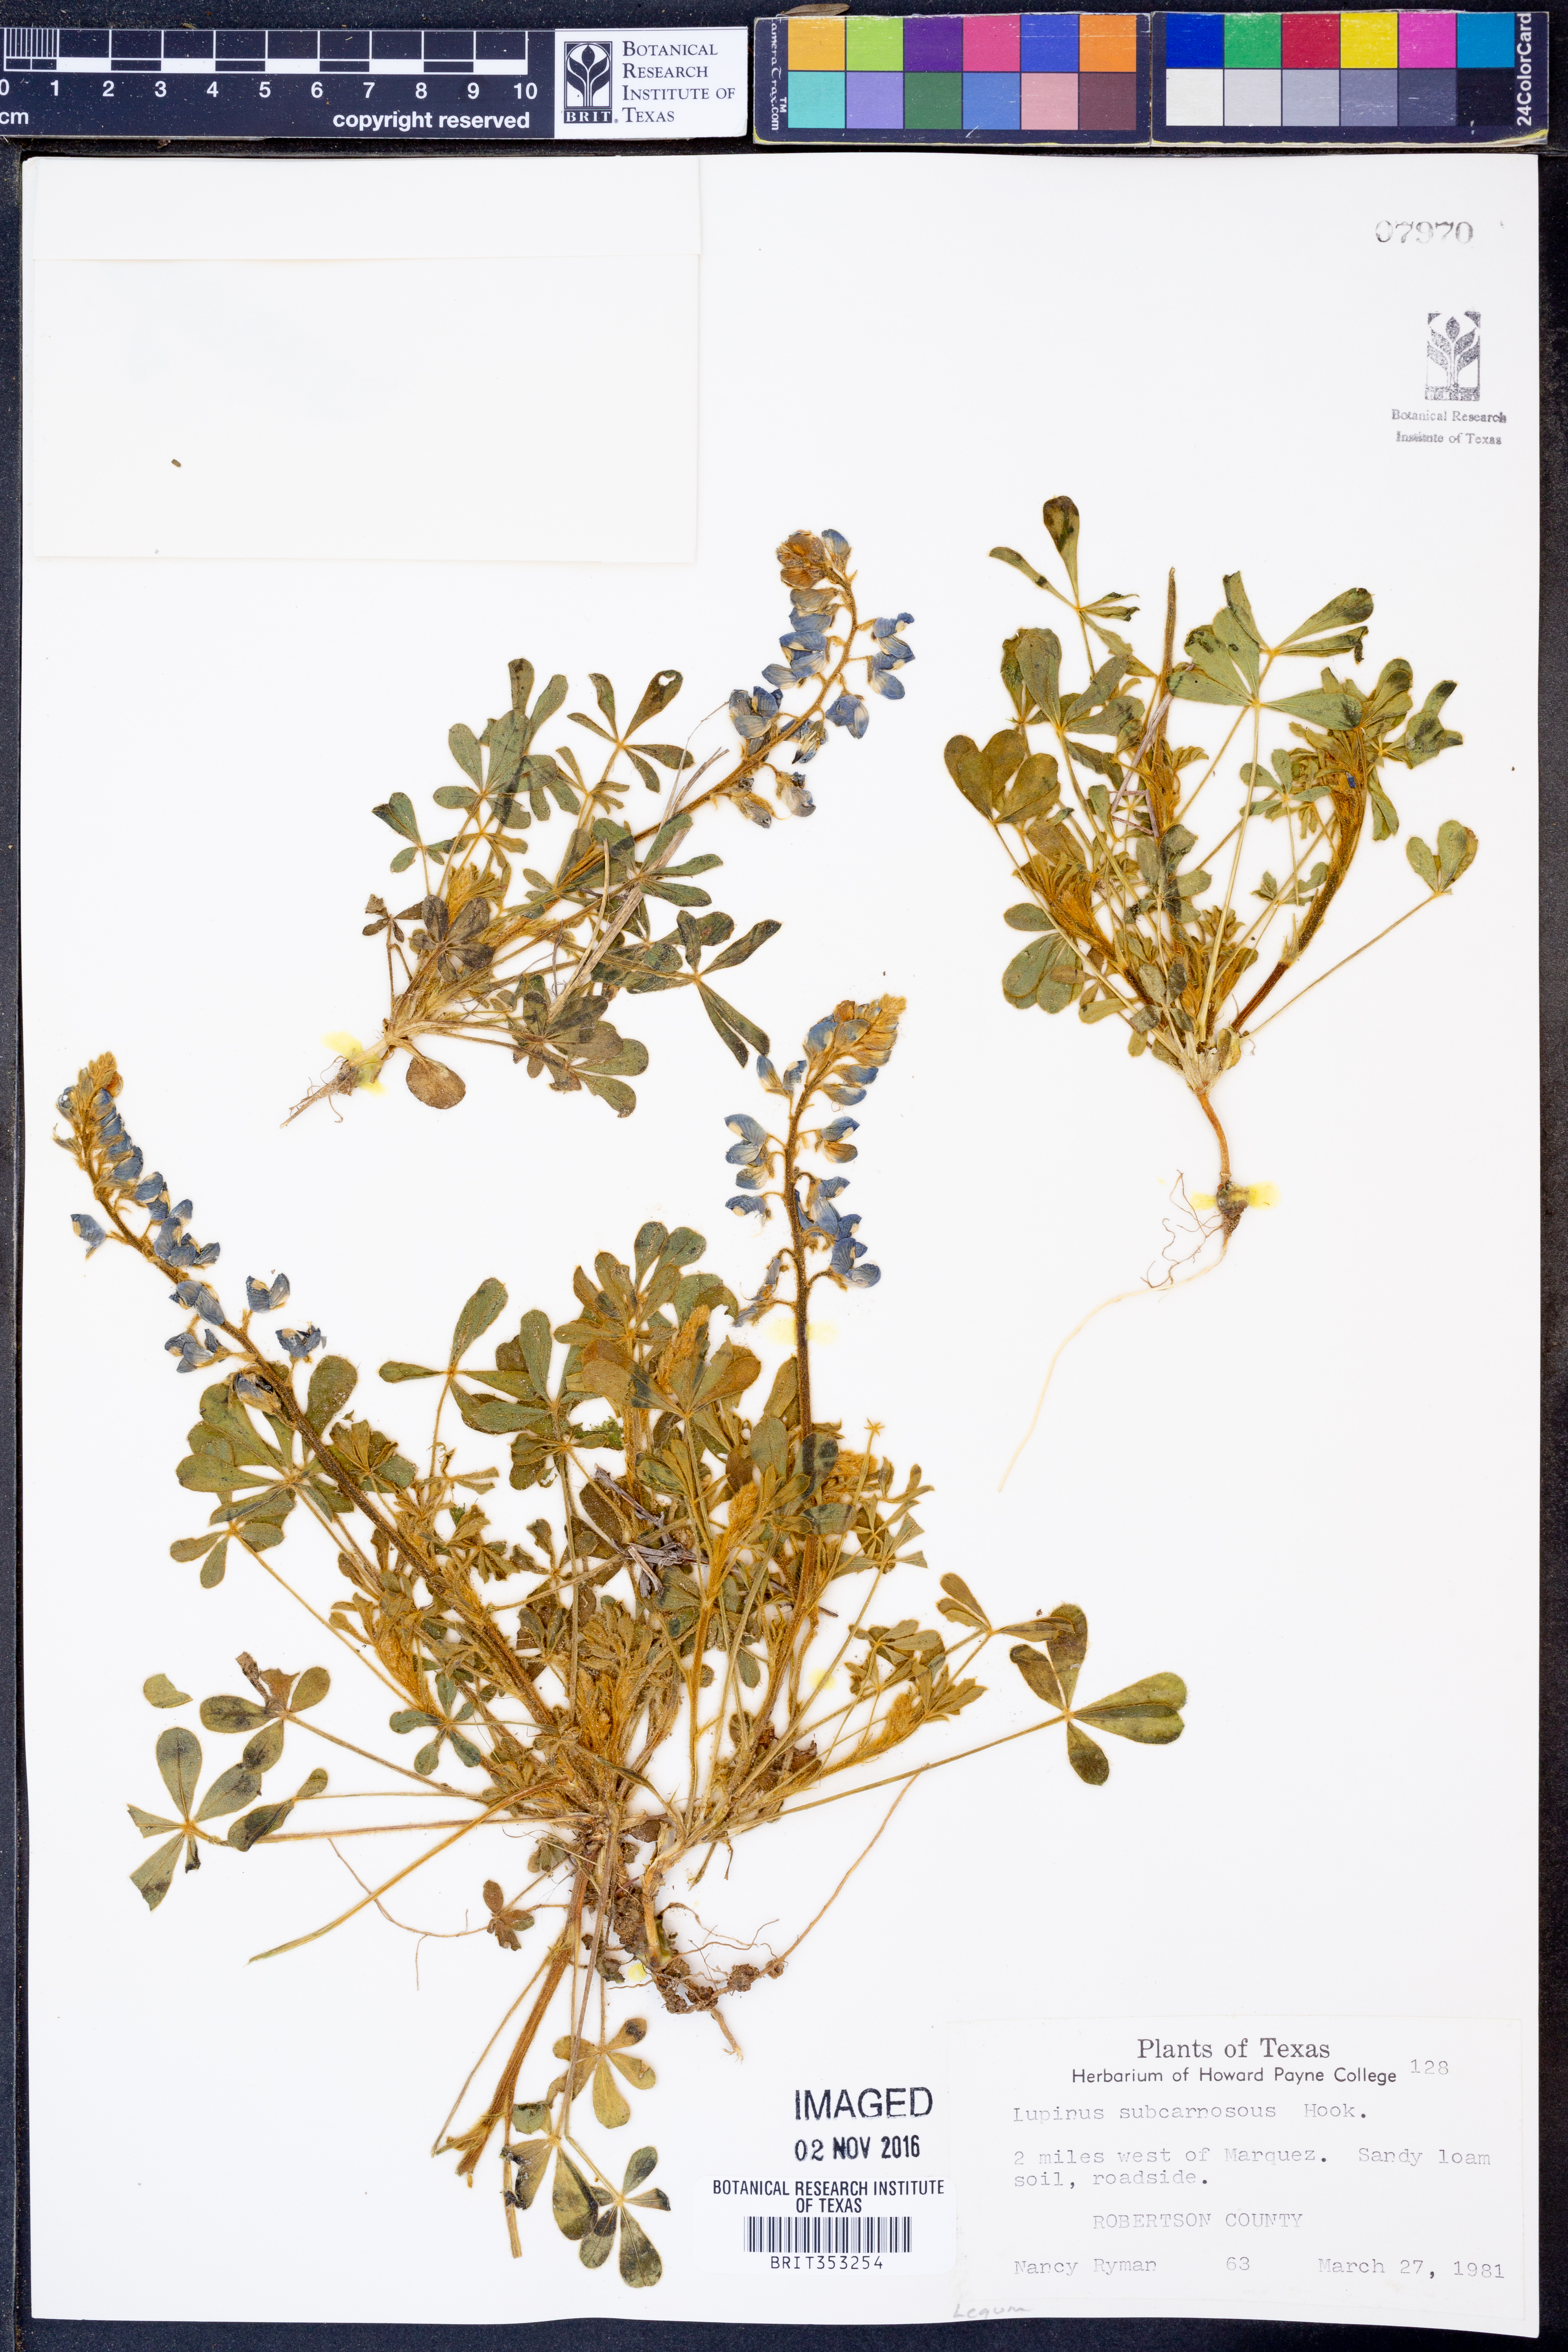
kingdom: Plantae
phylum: Tracheophyta
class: Magnoliopsida
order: Fabales
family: Fabaceae
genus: Lupinus
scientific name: Lupinus subcarnosus
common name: Texas bluebonnet
